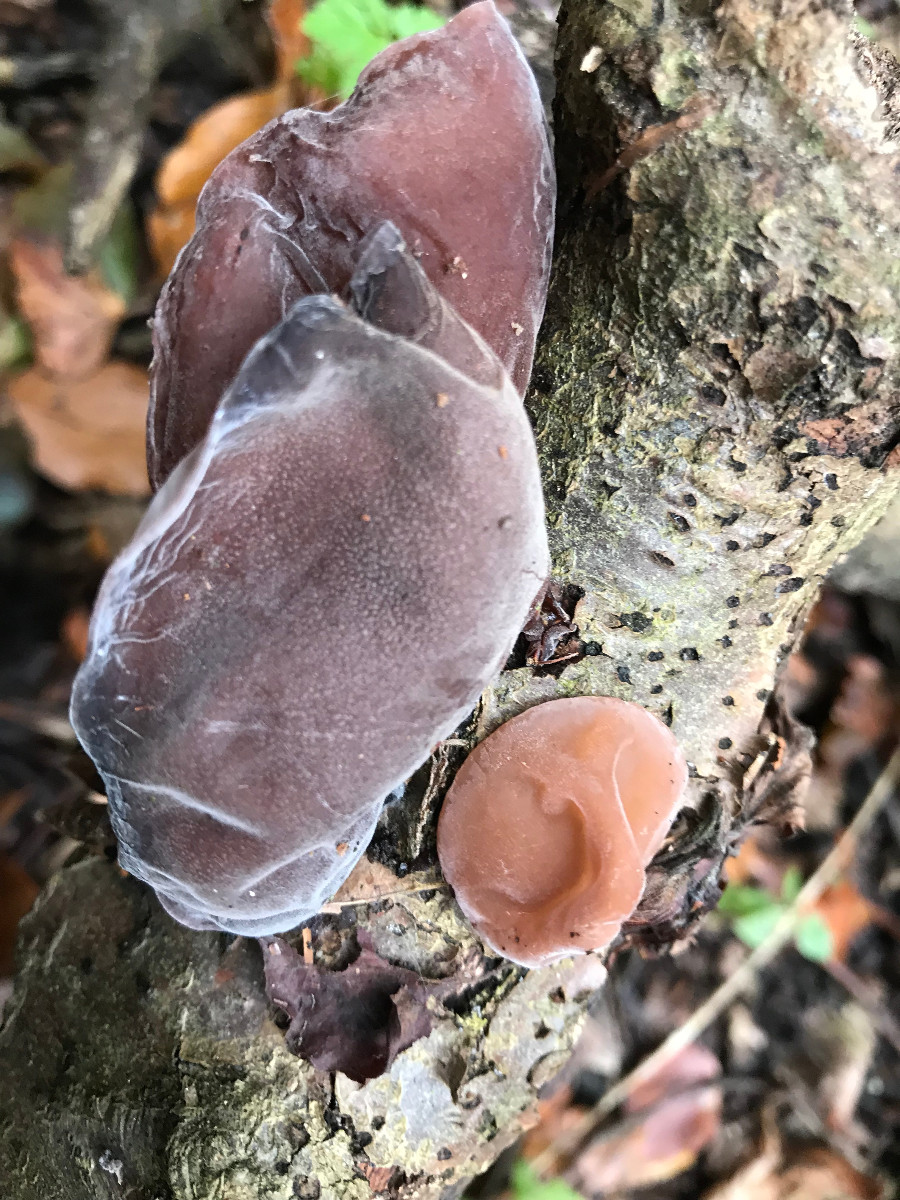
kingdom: Fungi
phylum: Basidiomycota
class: Agaricomycetes
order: Auriculariales
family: Auriculariaceae
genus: Auricularia
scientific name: Auricularia auricula-judae
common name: almindelig judasøre
